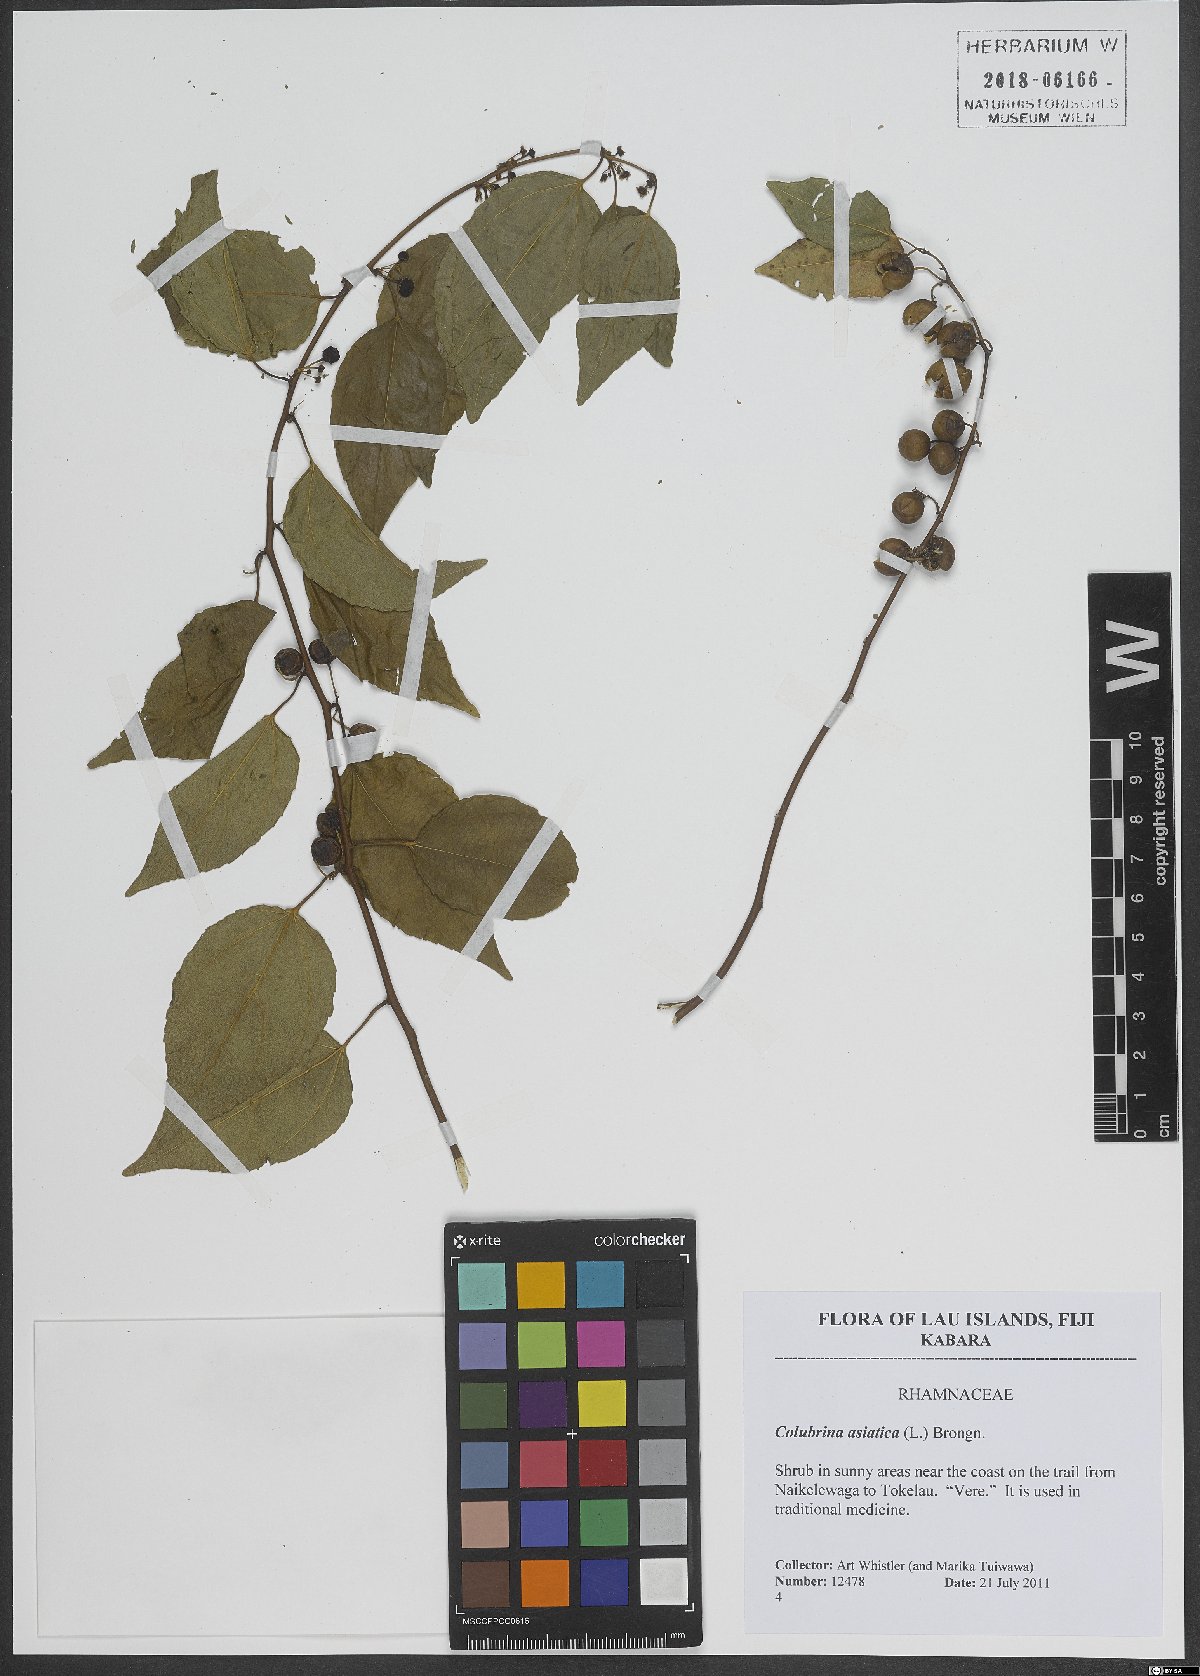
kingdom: Plantae
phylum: Tracheophyta
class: Magnoliopsida
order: Rosales
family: Rhamnaceae
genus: Colubrina
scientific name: Colubrina asiatica
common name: Asian nakedwood
